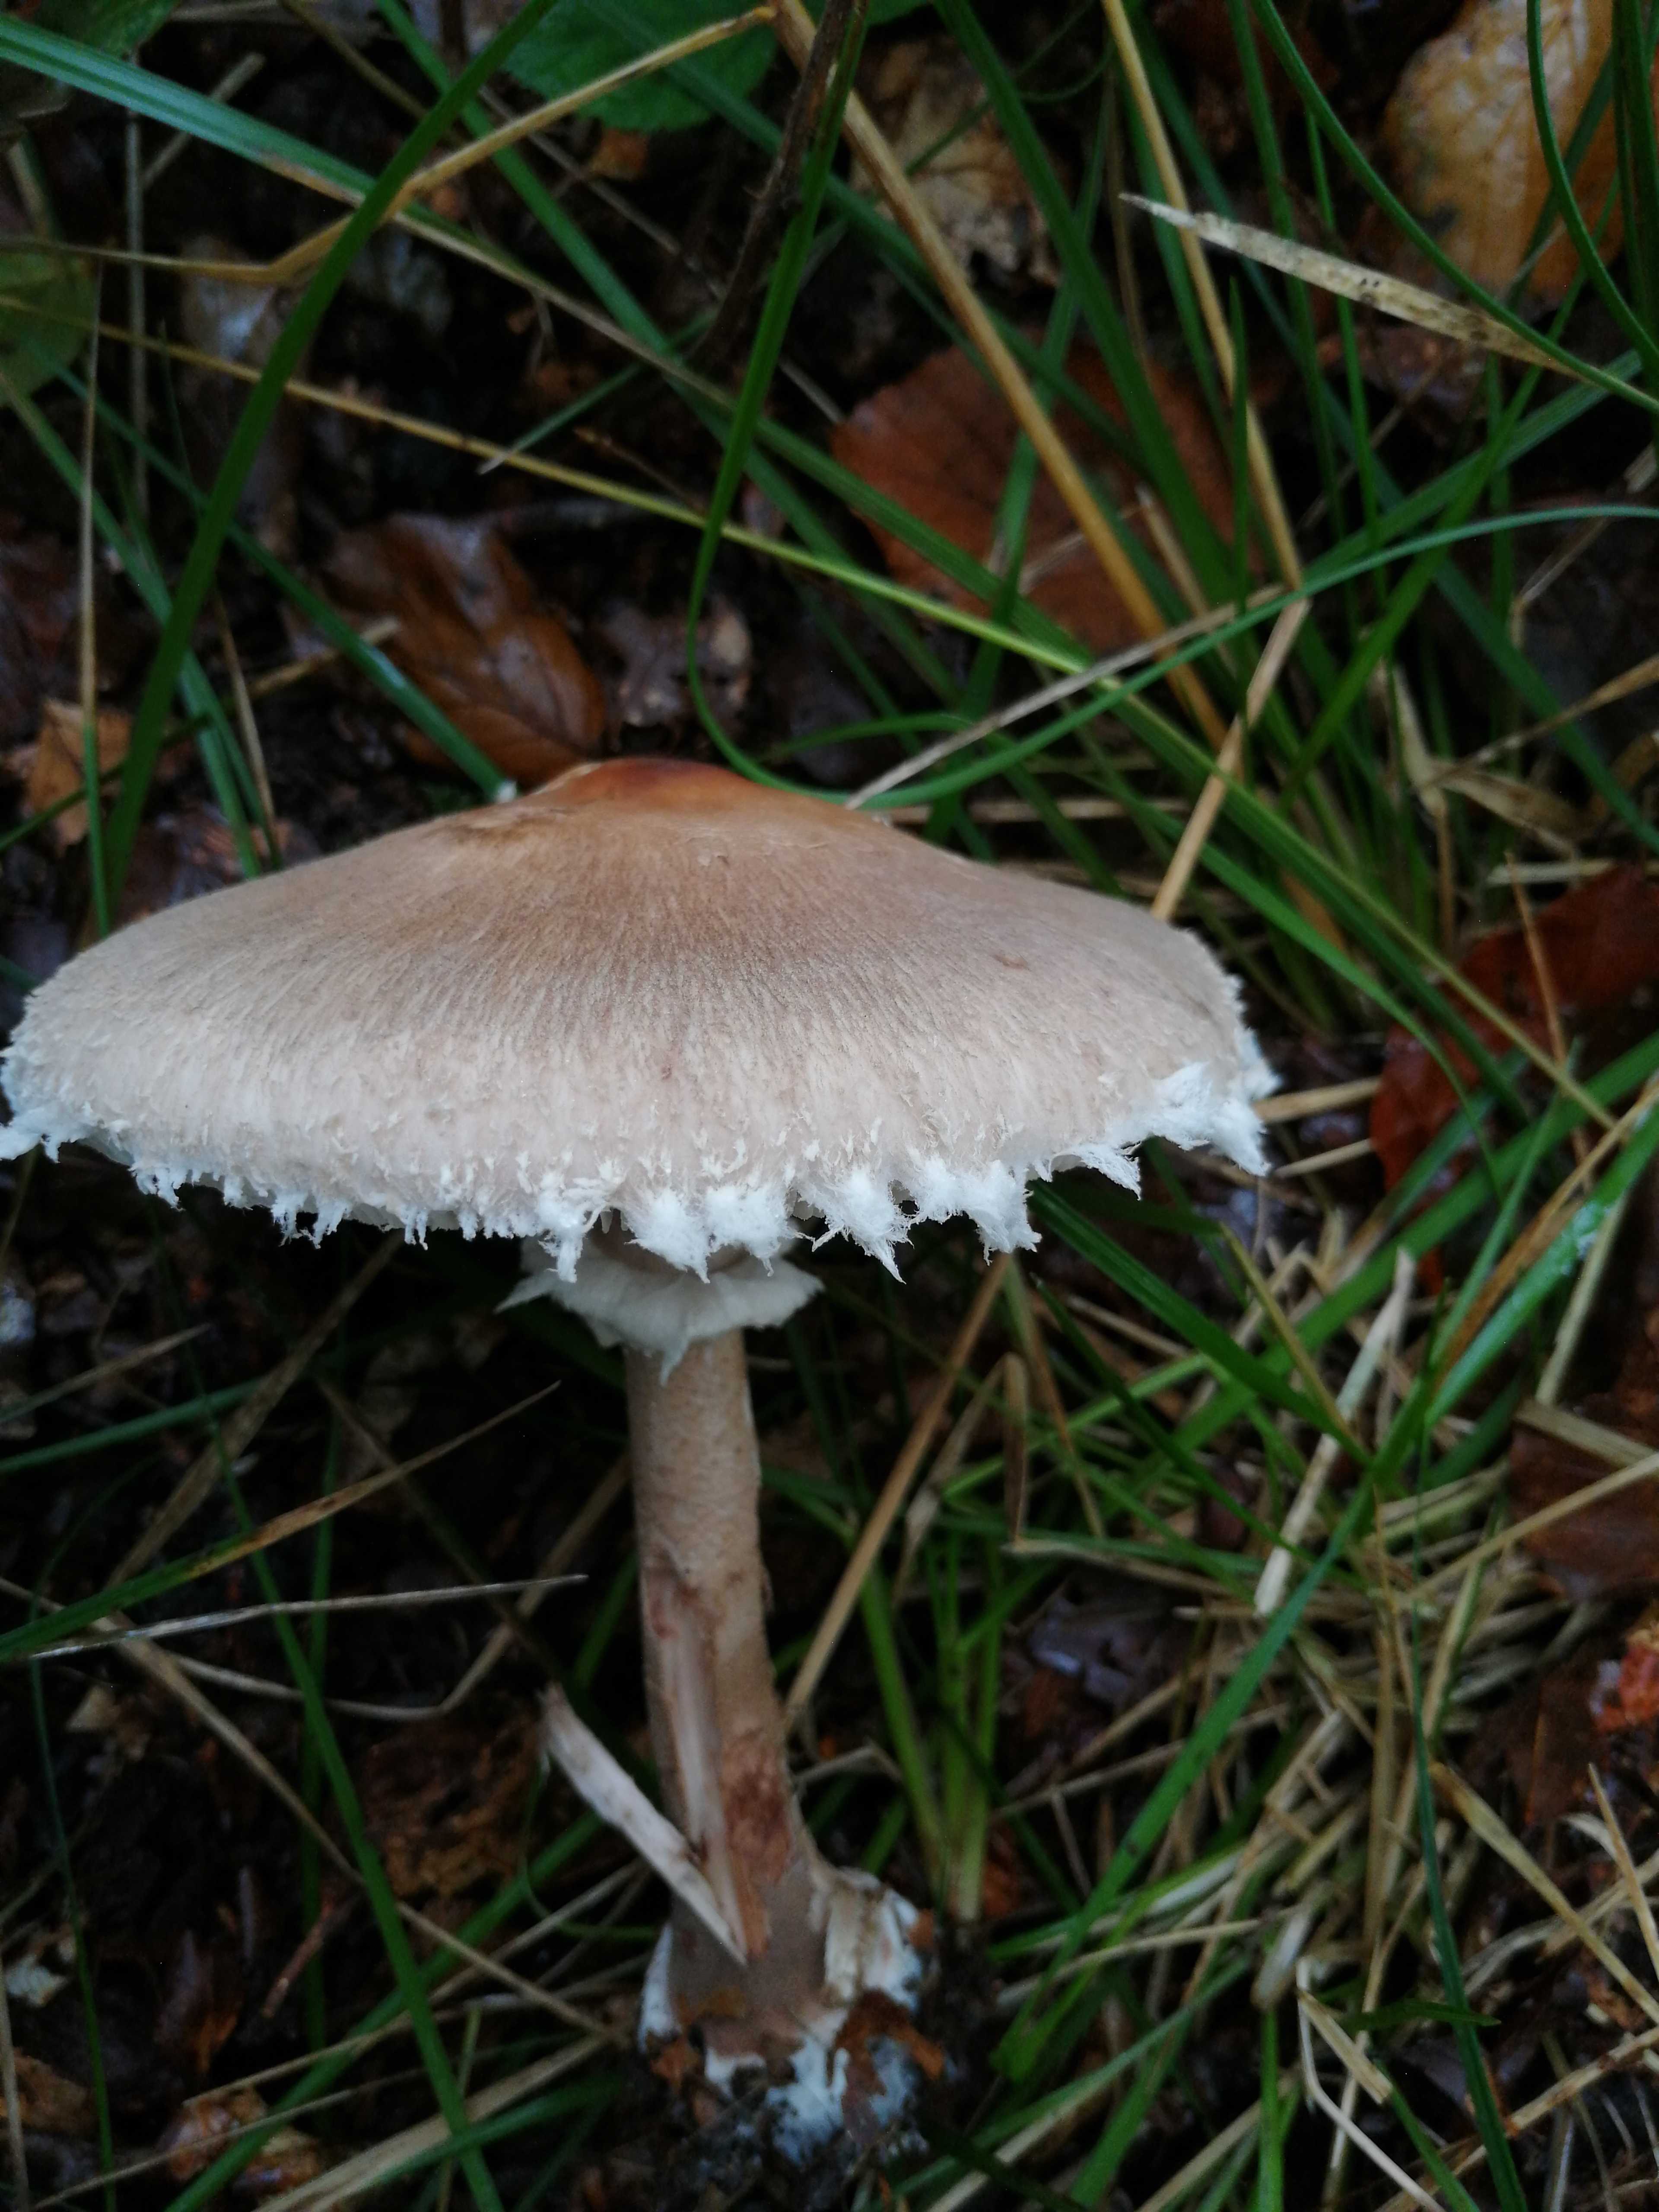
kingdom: Fungi
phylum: Basidiomycota
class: Agaricomycetes
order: Agaricales
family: Agaricaceae
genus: Macrolepiota
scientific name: Macrolepiota
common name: kæmpeparasolhat
